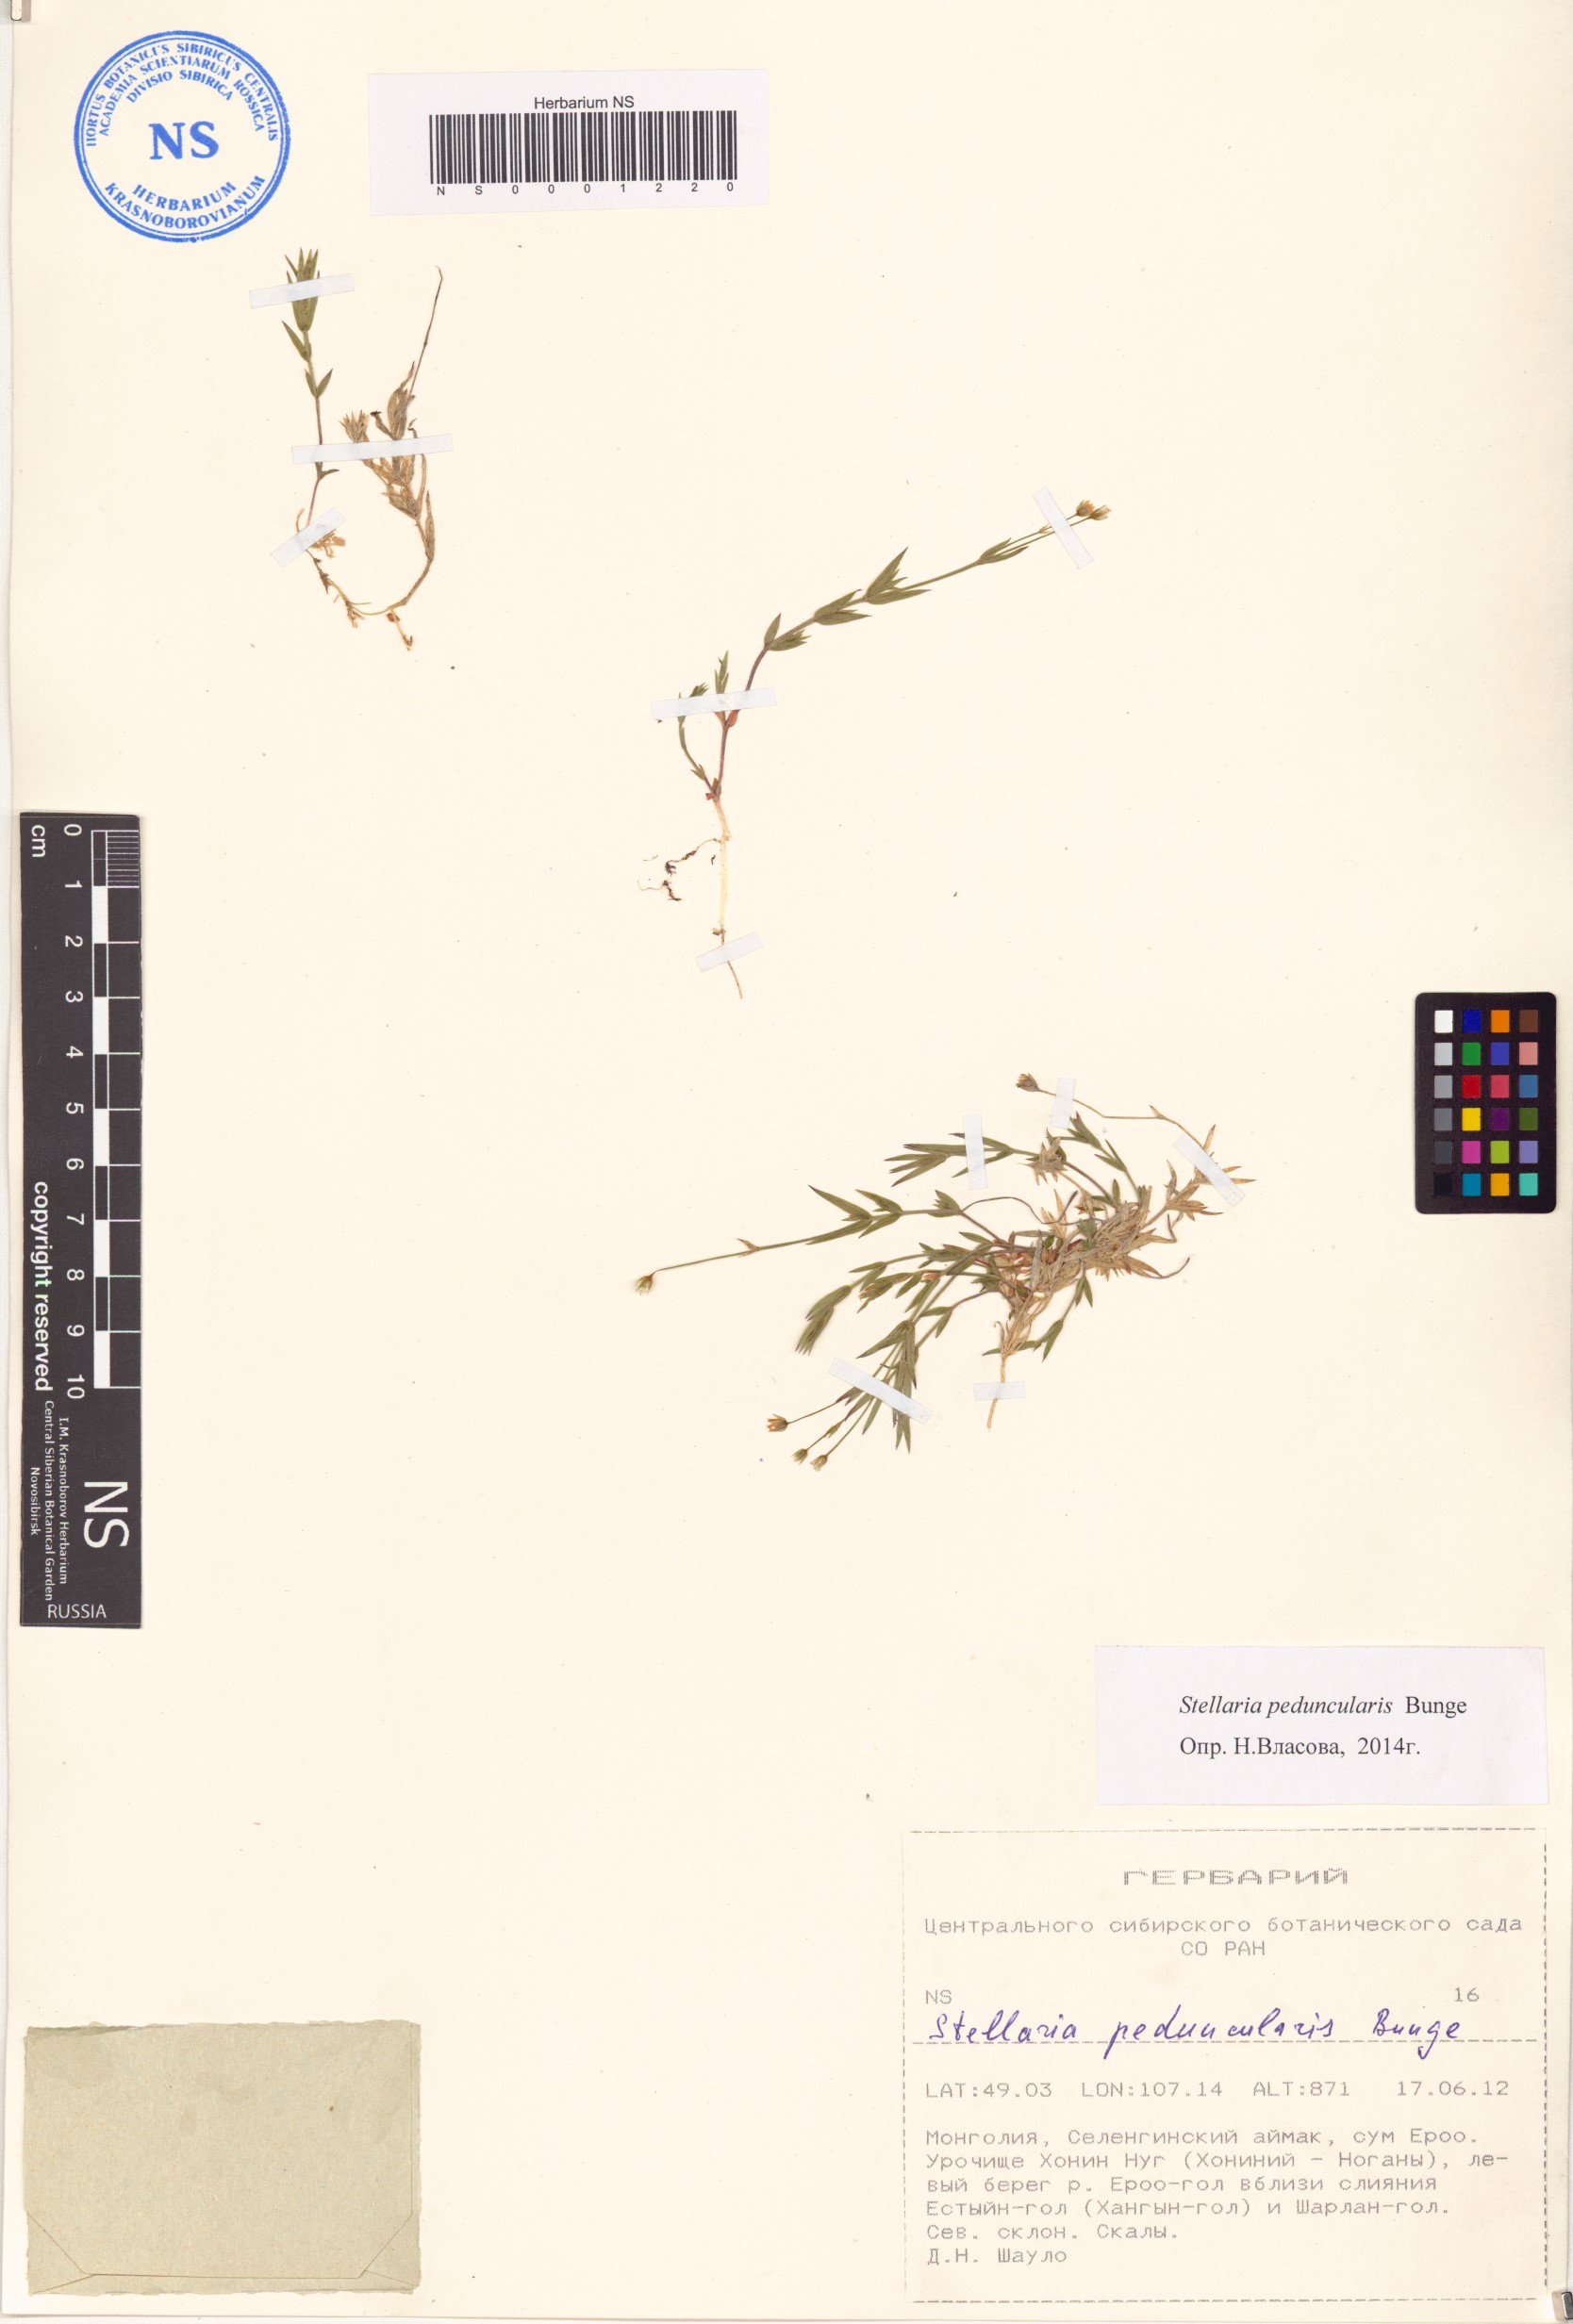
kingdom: Plantae
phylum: Tracheophyta
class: Magnoliopsida
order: Caryophyllales
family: Caryophyllaceae
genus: Stellaria
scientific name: Stellaria peduncularis
